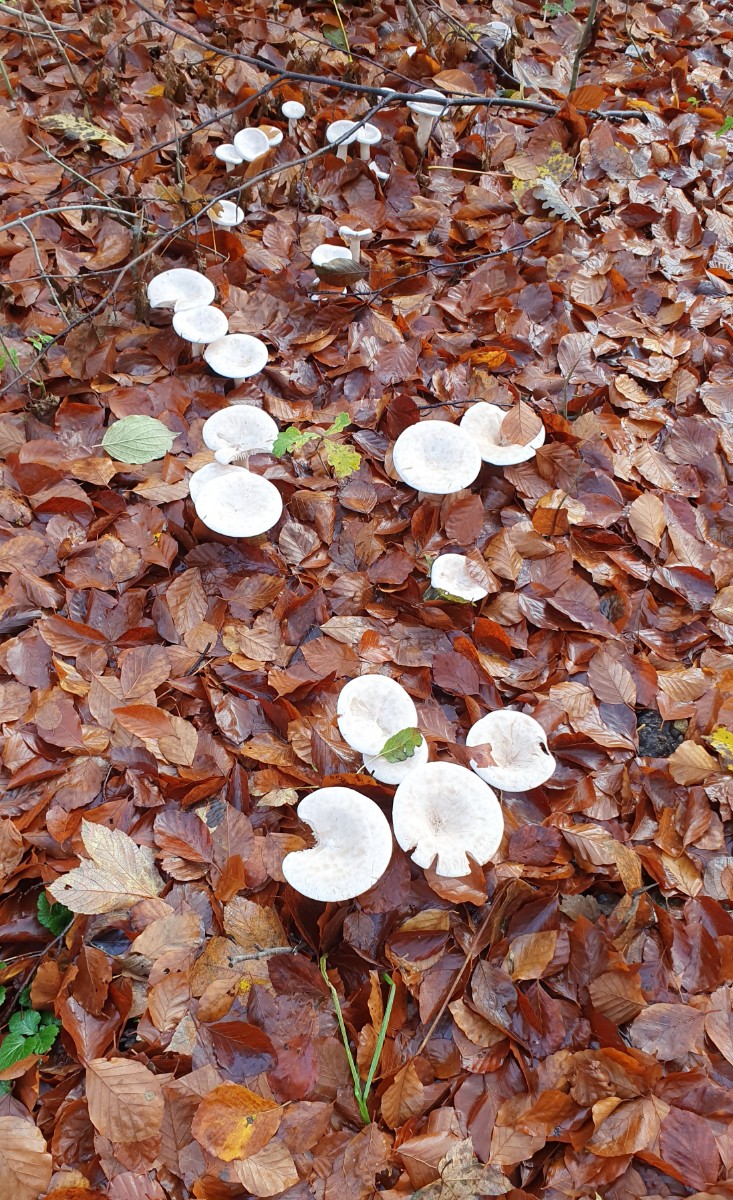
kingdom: Fungi
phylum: Basidiomycota
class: Agaricomycetes
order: Agaricales
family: Tricholomataceae
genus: Infundibulicybe
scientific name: Infundibulicybe geotropa
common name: stor tragthat
